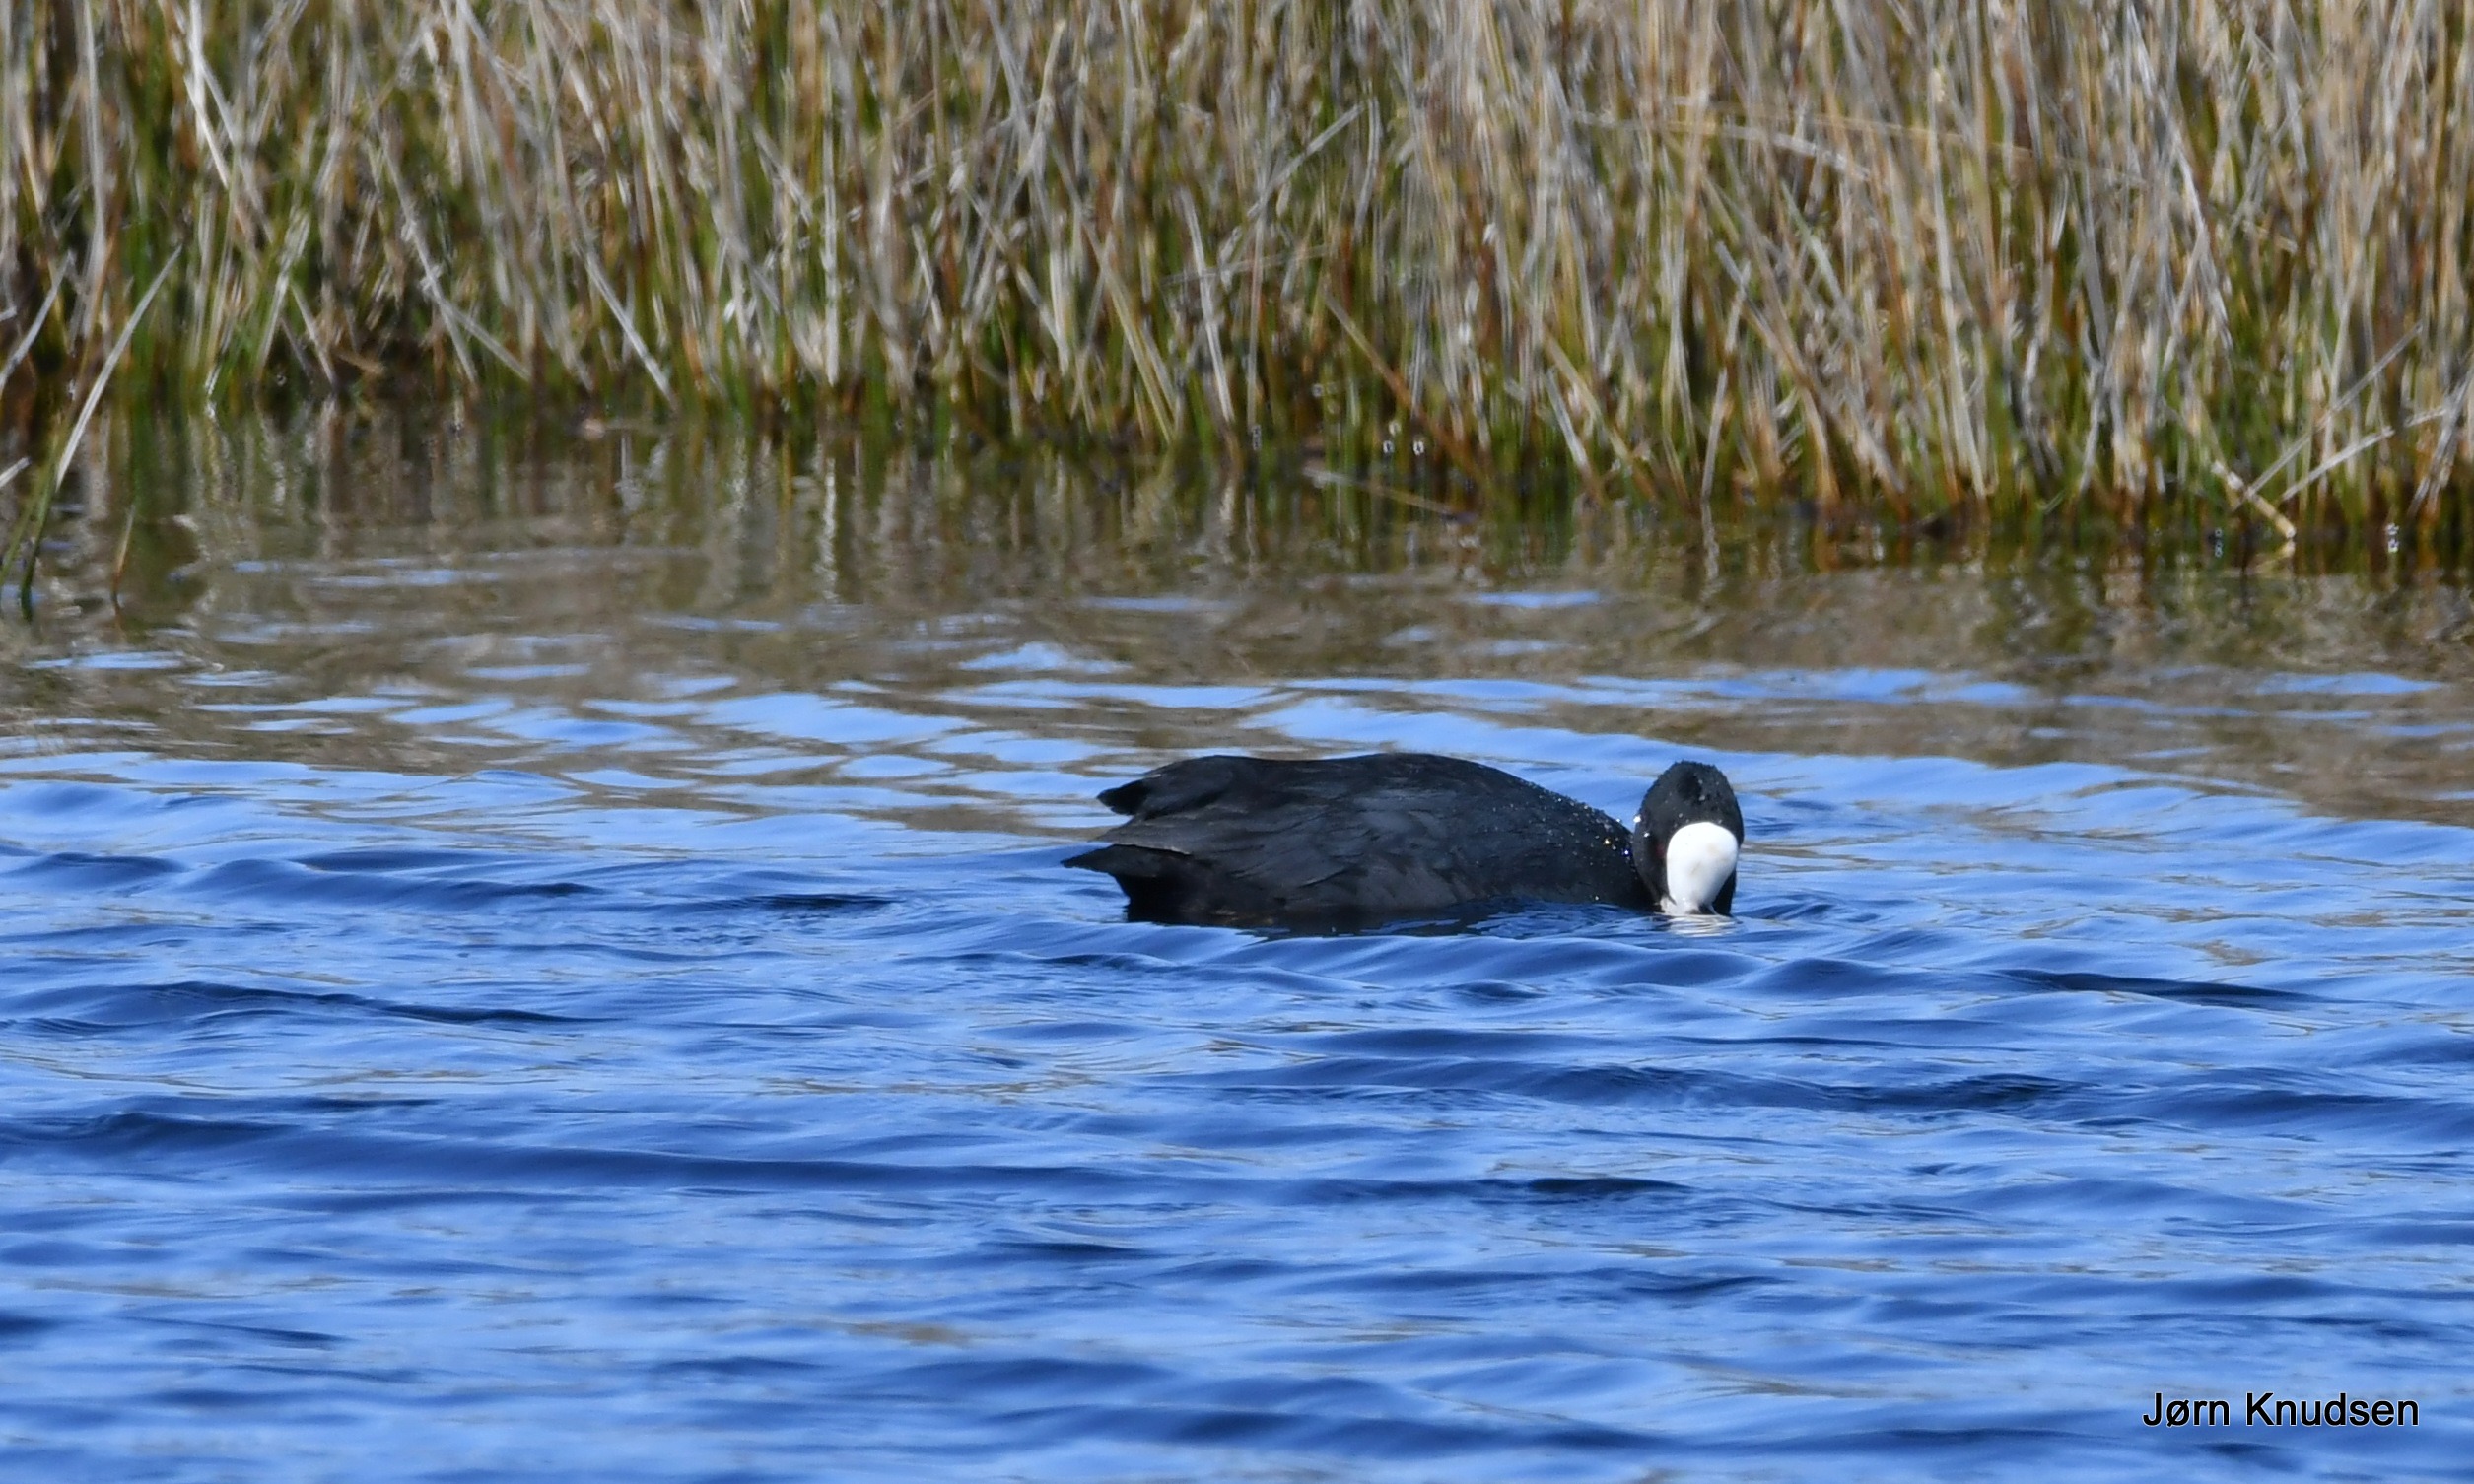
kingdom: Animalia
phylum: Chordata
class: Aves
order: Gruiformes
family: Rallidae
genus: Fulica
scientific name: Fulica atra
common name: Blishøne
